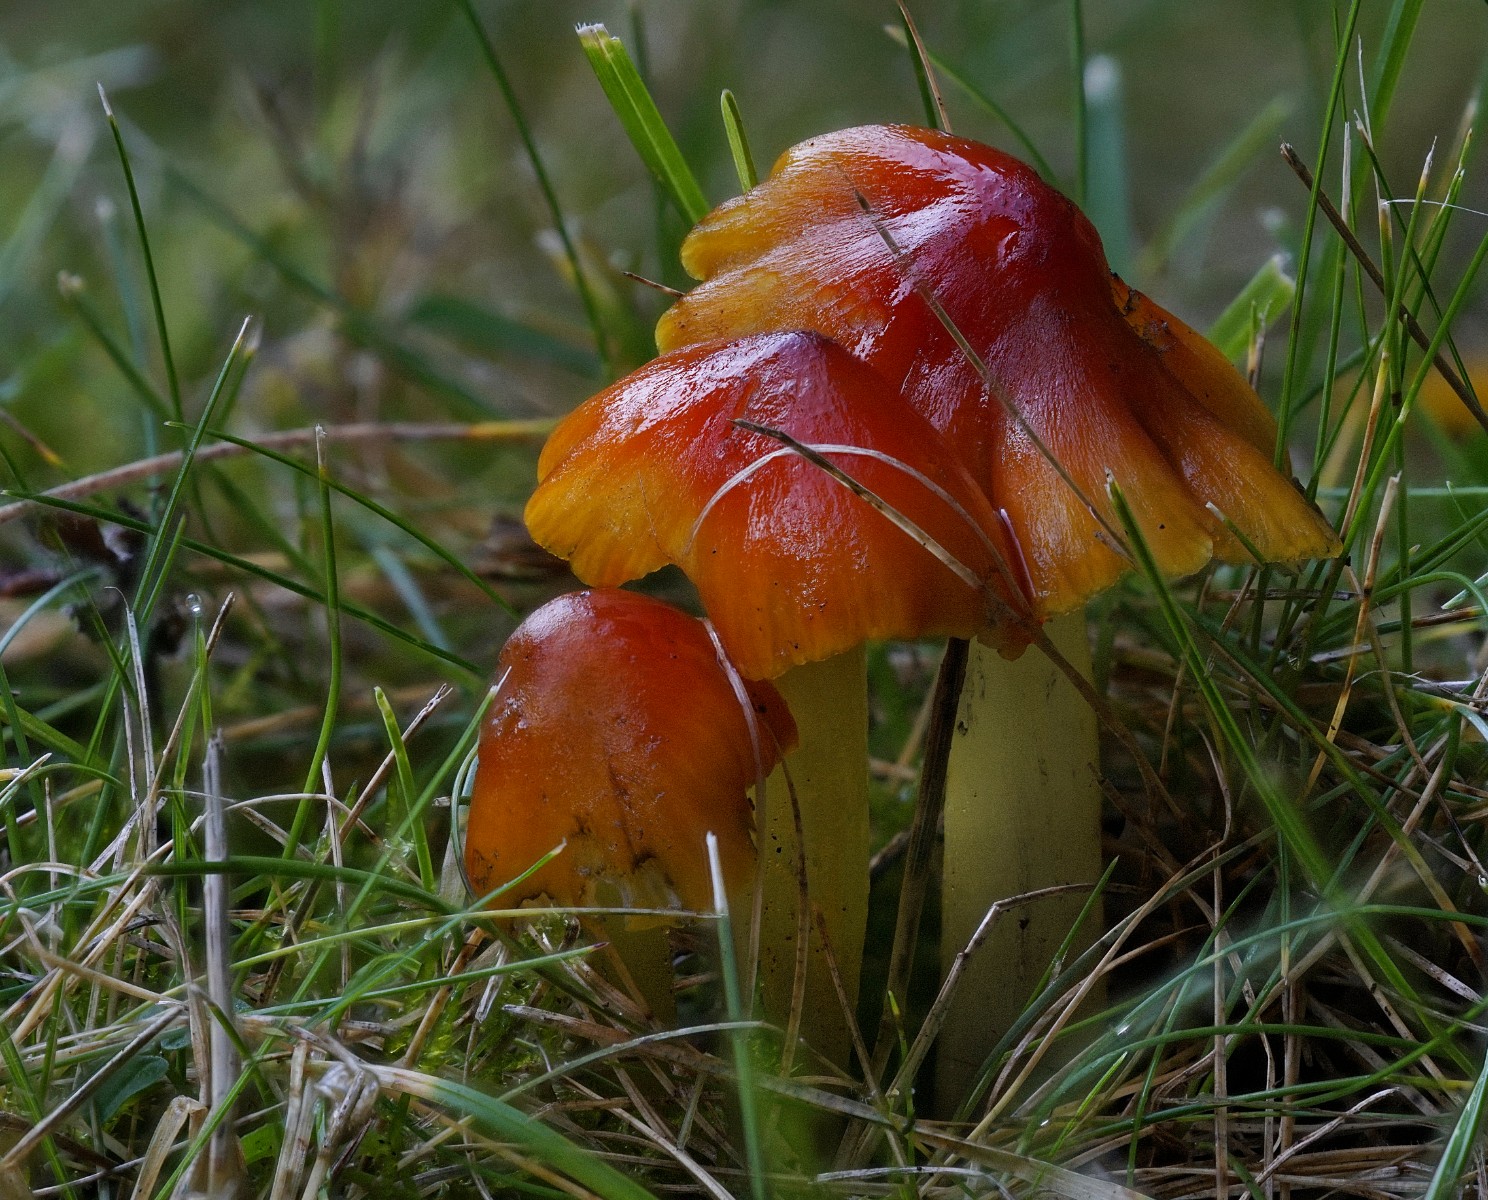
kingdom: Fungi
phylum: Basidiomycota
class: Agaricomycetes
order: Agaricales
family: Hygrophoraceae
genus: Hygrocybe
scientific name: Hygrocybe conica
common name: kegle-vokshat
